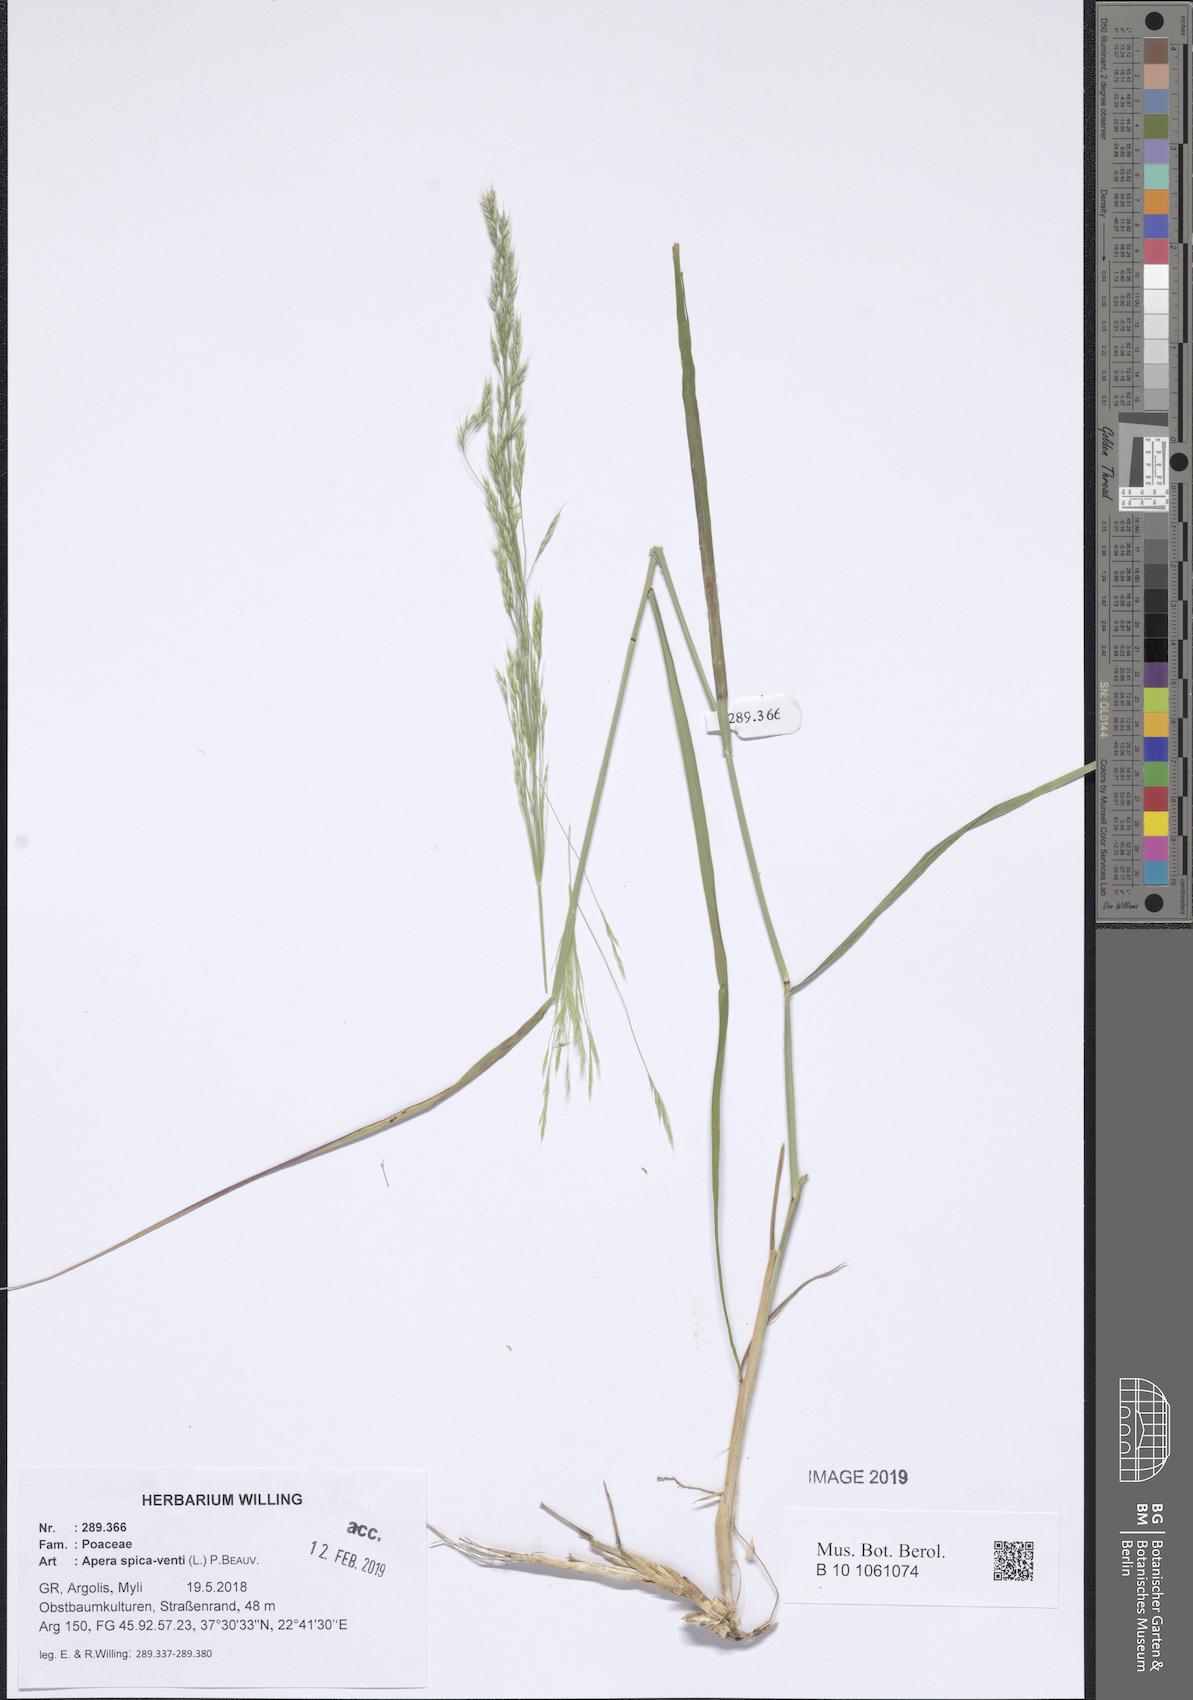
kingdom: Plantae
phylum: Tracheophyta
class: Liliopsida
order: Poales
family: Poaceae
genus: Apera
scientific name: Apera spica-venti
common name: Loose silky-bent
